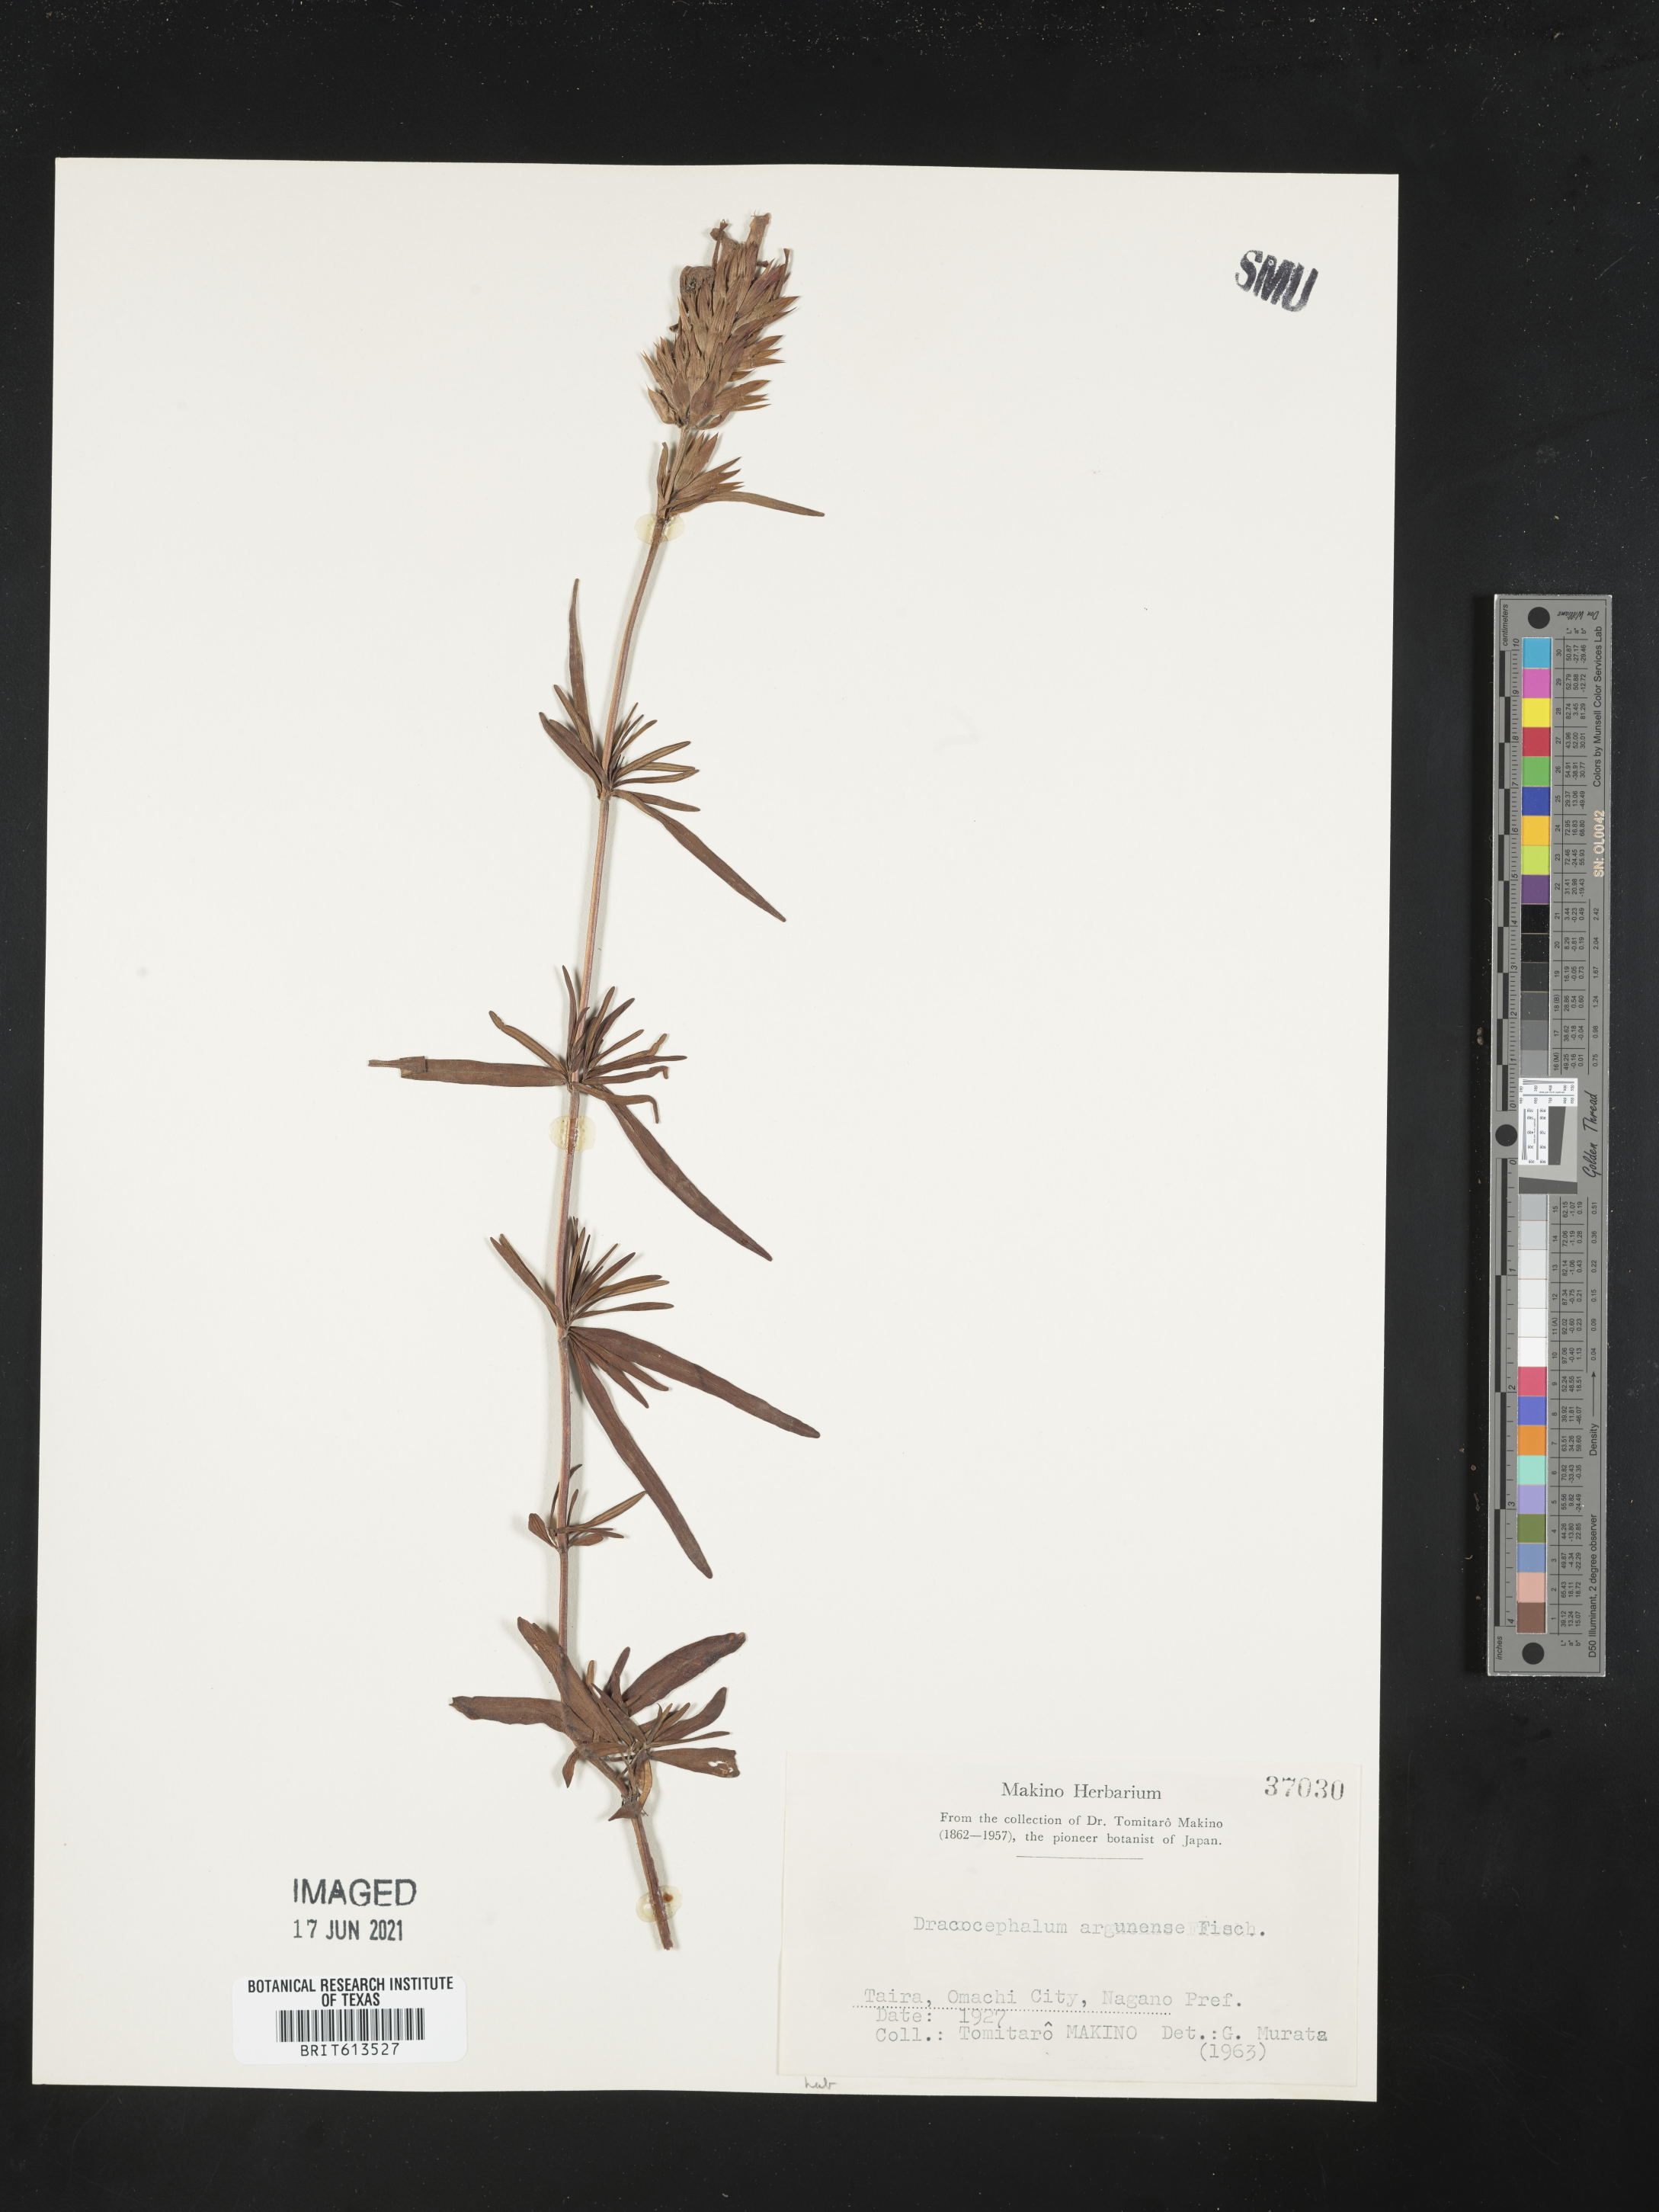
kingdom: Plantae
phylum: Tracheophyta
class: Magnoliopsida
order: Lamiales
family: Lamiaceae
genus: Dracocephalum
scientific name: Dracocephalum argunense
